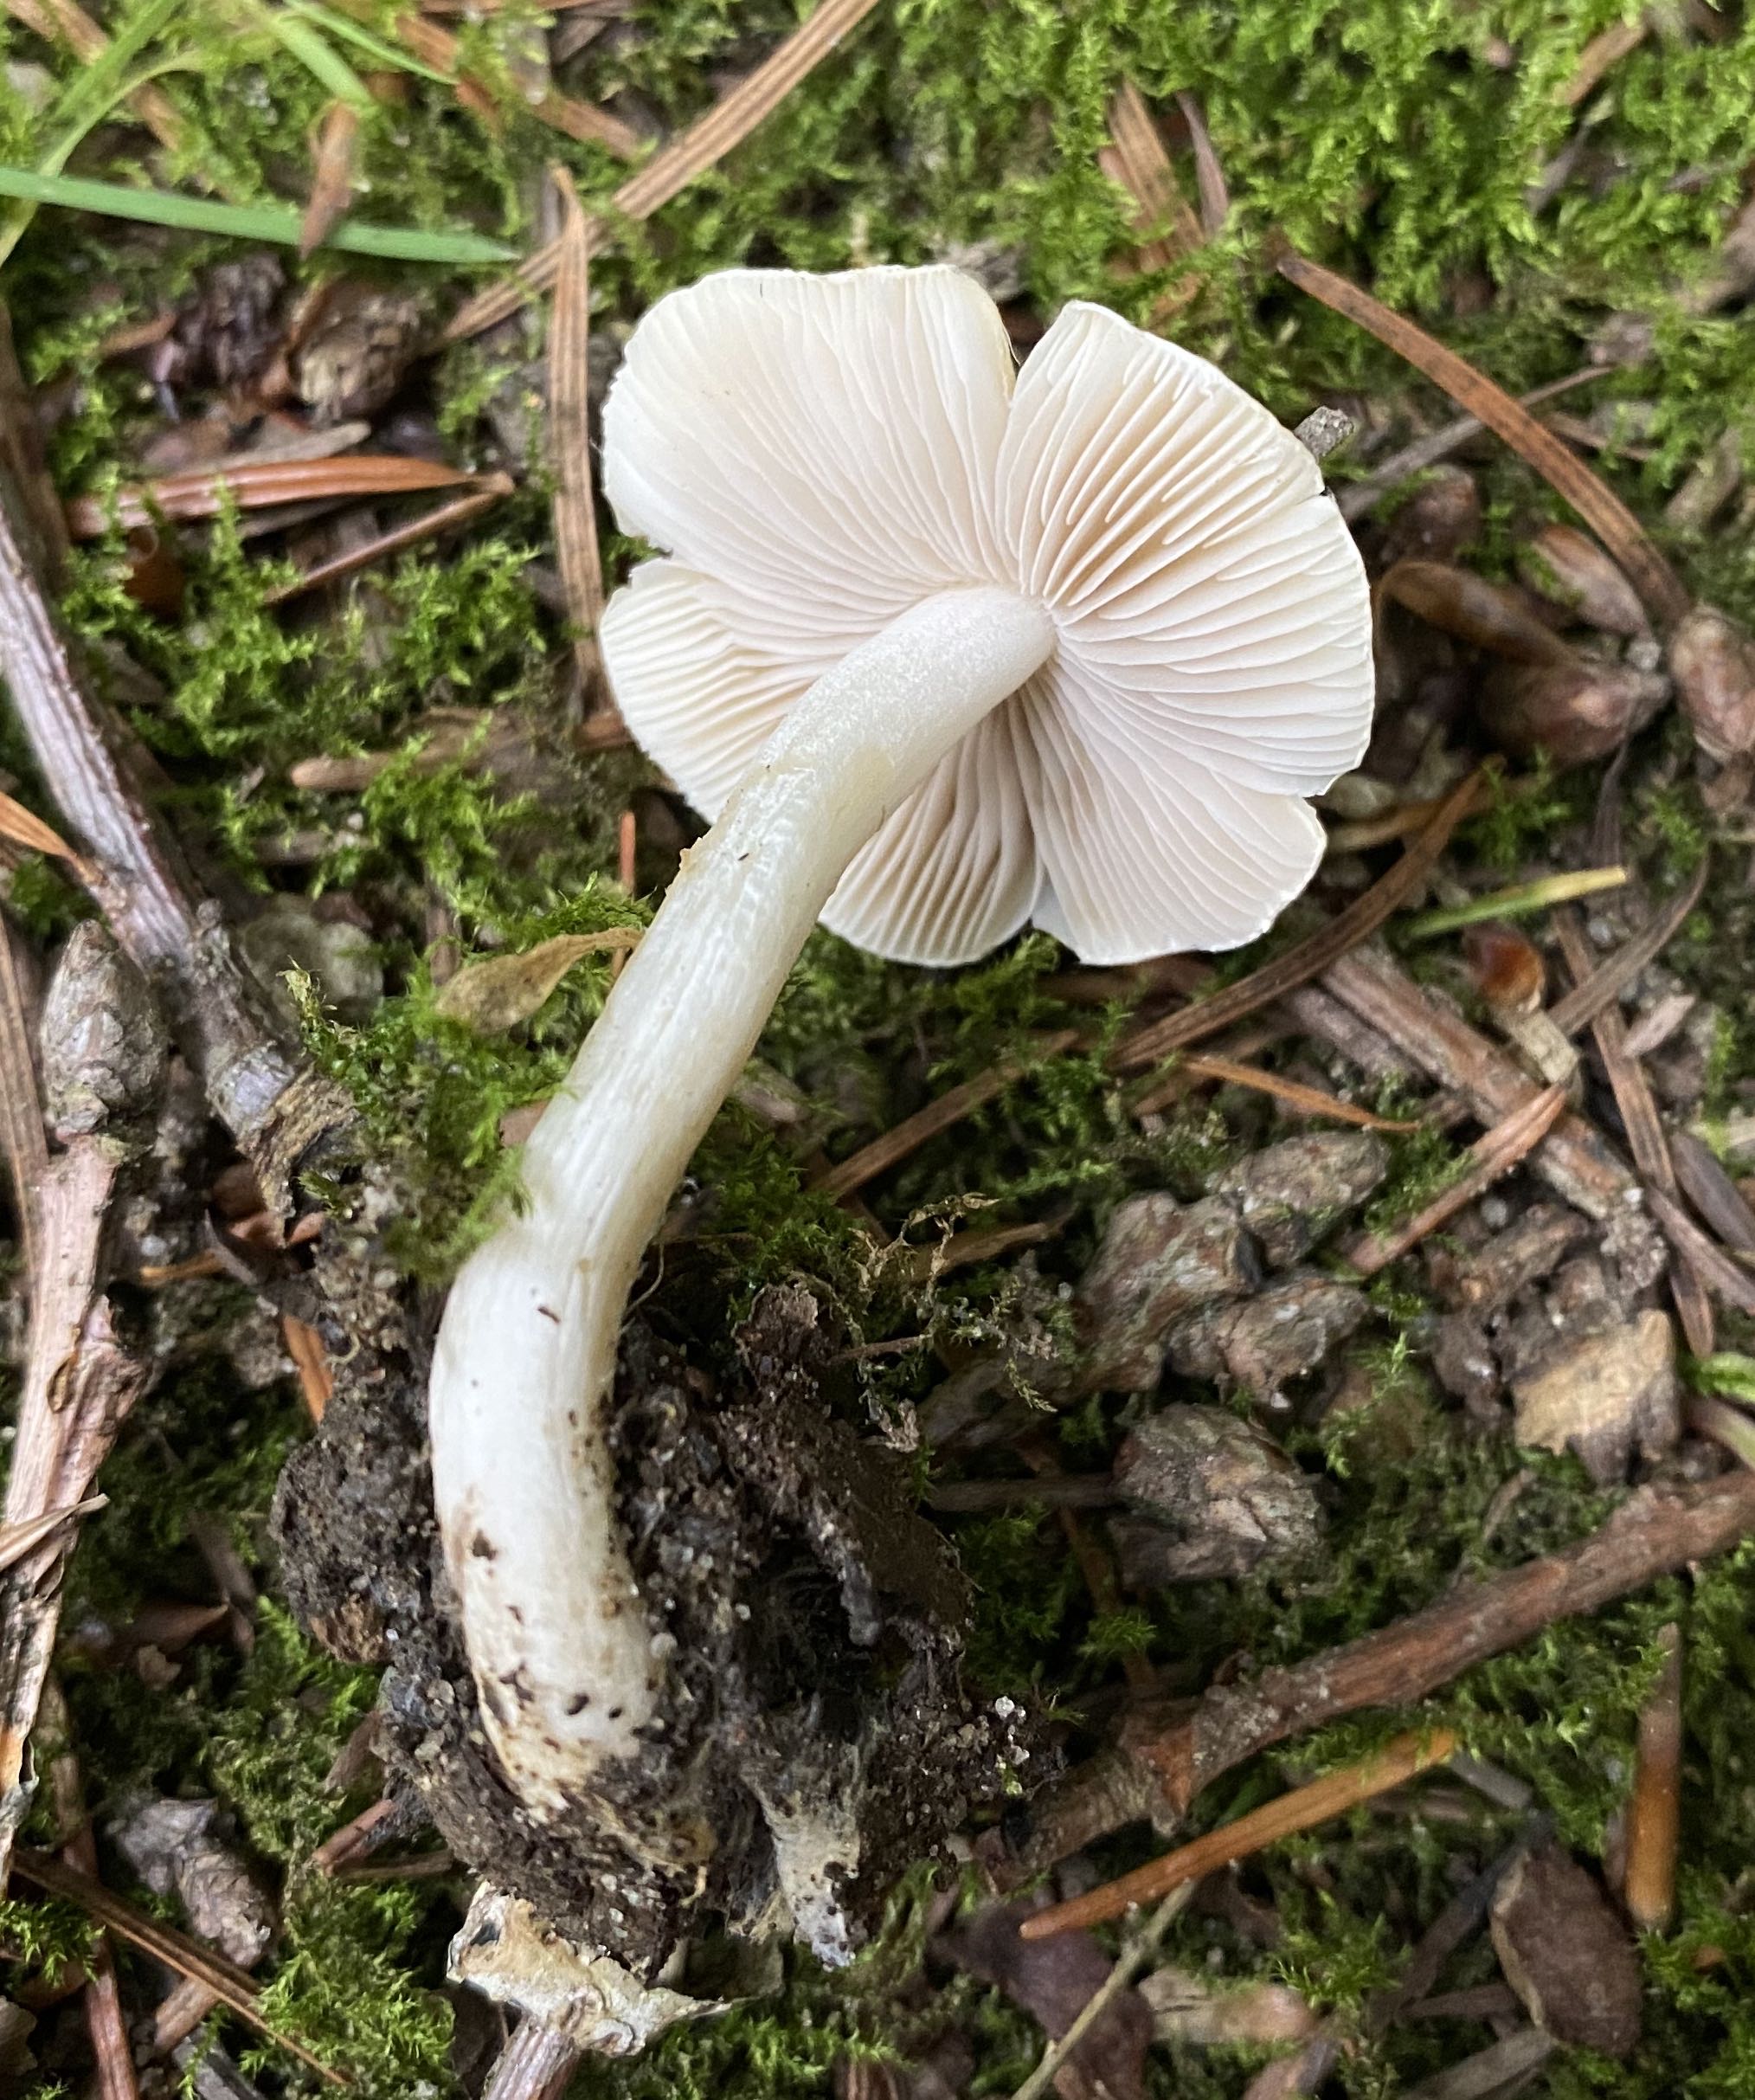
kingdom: Fungi
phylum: Basidiomycota
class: Agaricomycetes
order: Agaricales
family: Inocybaceae
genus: Inocybe
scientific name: Inocybe
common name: almindelig trævlhat
